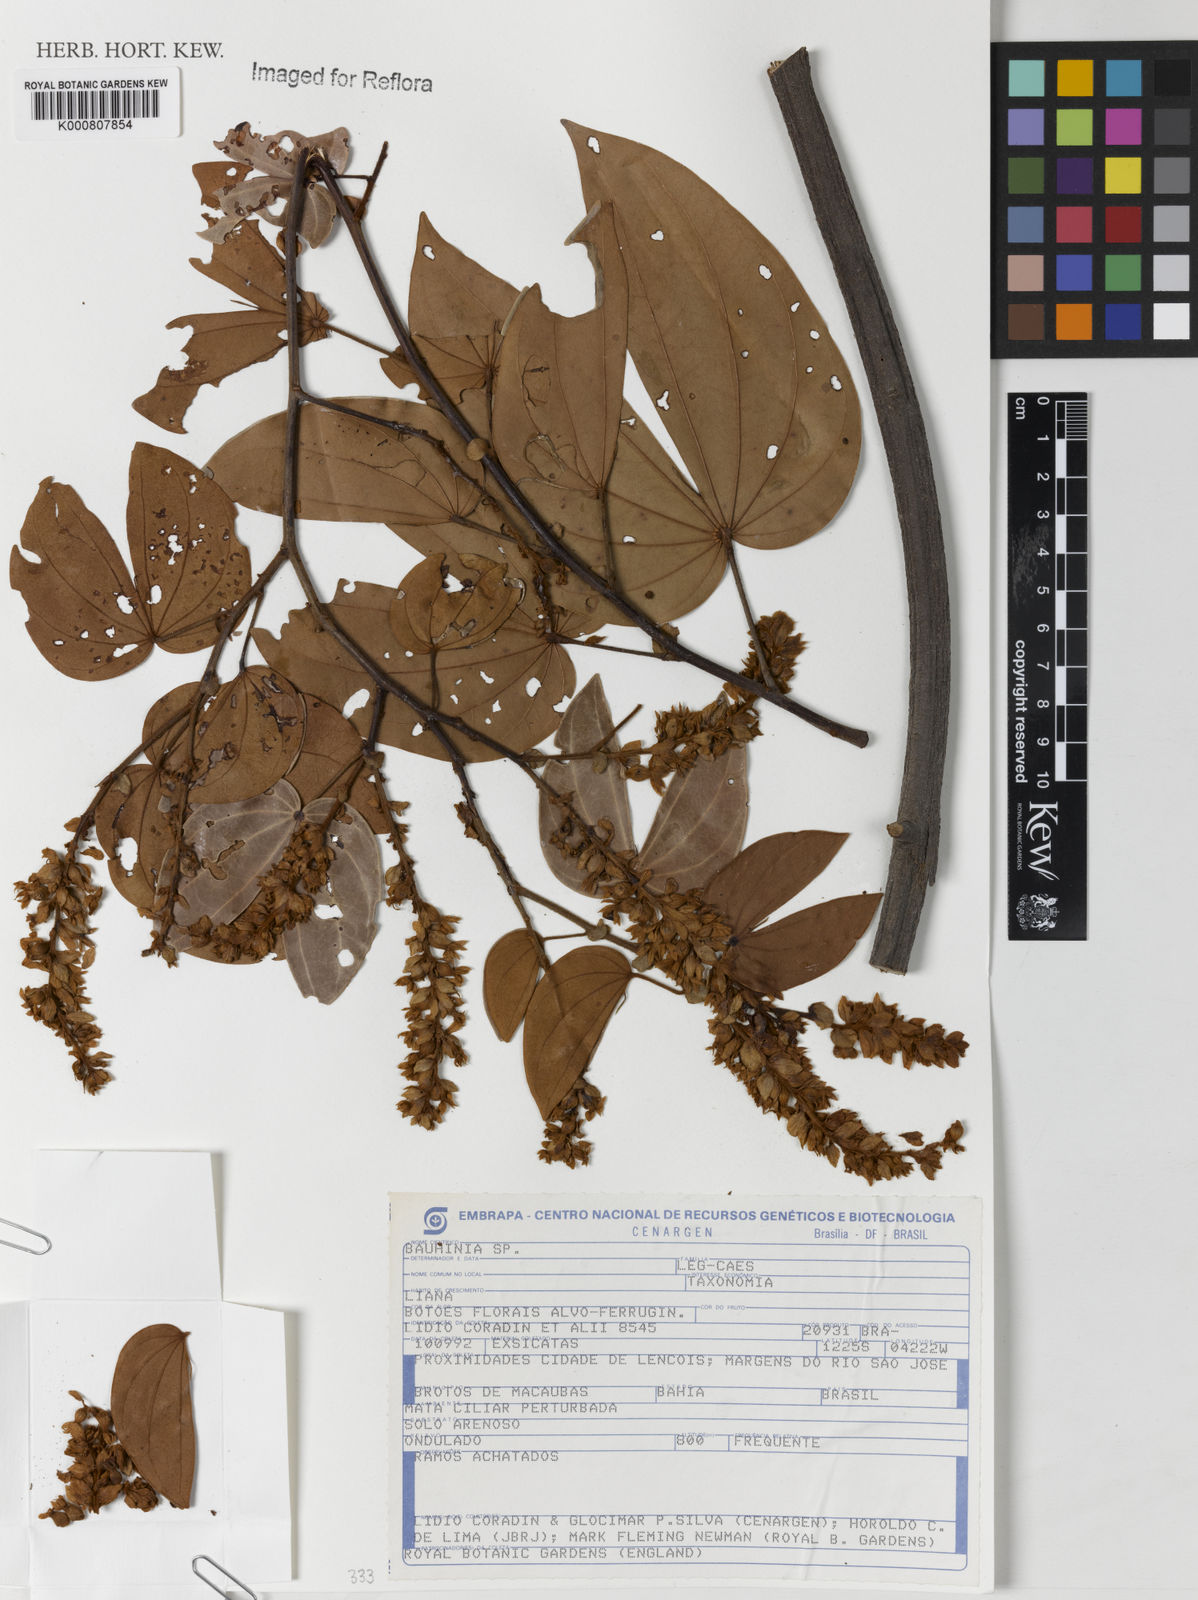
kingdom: Plantae
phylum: Tracheophyta
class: Magnoliopsida
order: Fabales
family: Fabaceae
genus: Schnella
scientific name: Schnella
